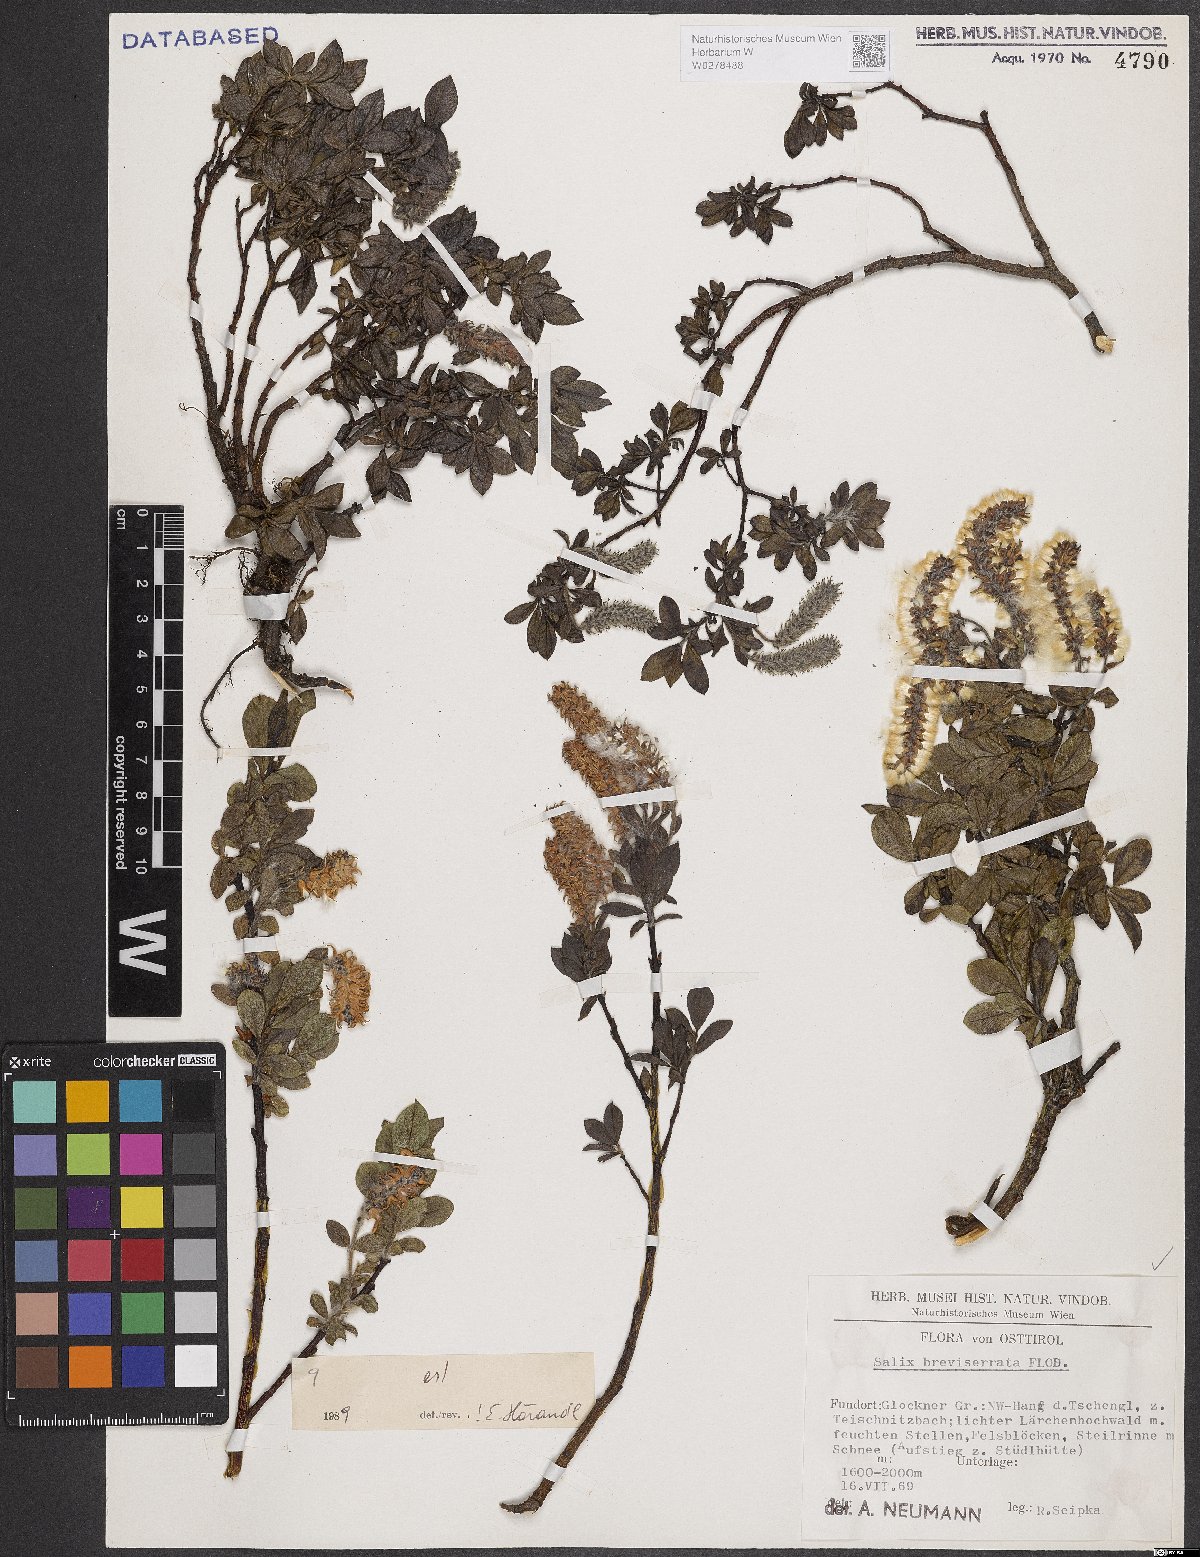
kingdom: Plantae
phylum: Tracheophyta
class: Magnoliopsida
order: Malpighiales
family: Salicaceae
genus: Salix
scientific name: Salix breviserrata
